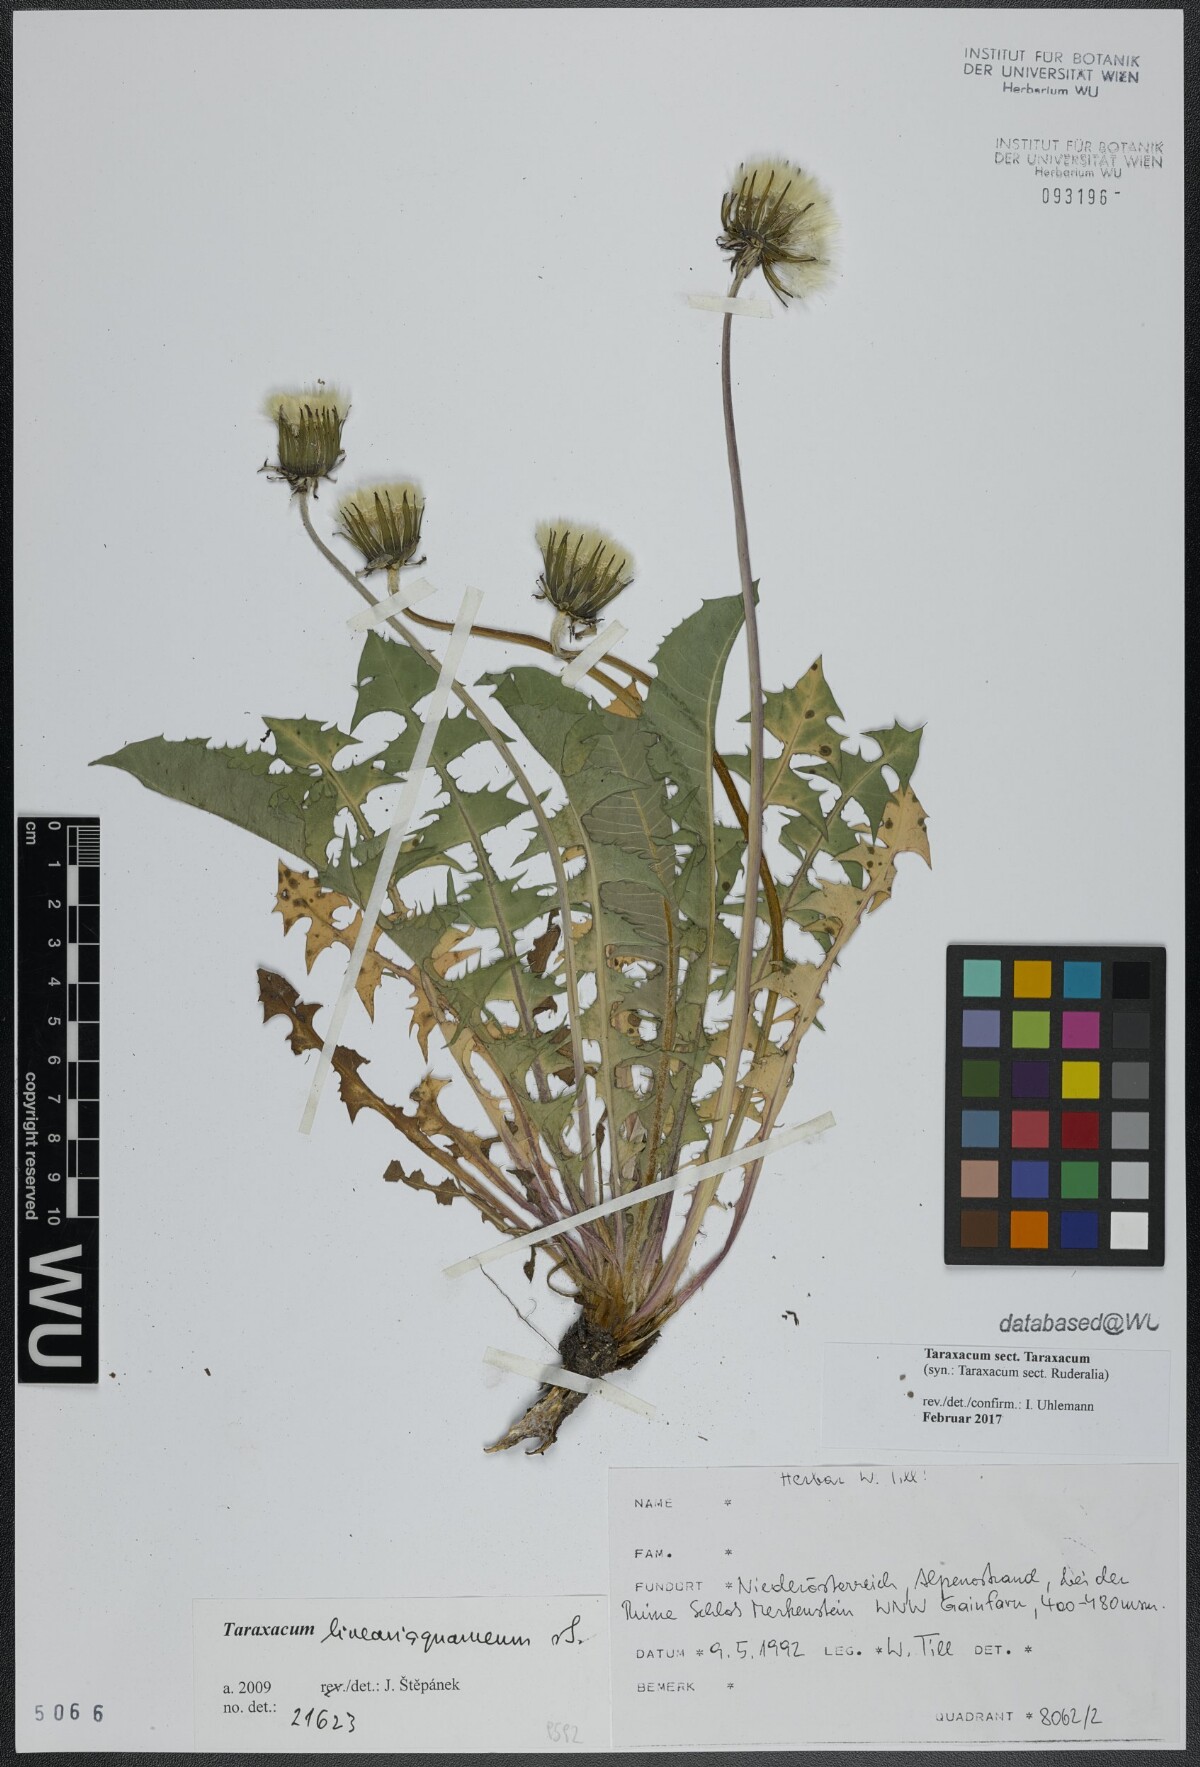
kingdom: Plantae
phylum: Tracheophyta
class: Magnoliopsida
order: Asterales
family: Asteraceae
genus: Taraxacum
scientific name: Taraxacum
